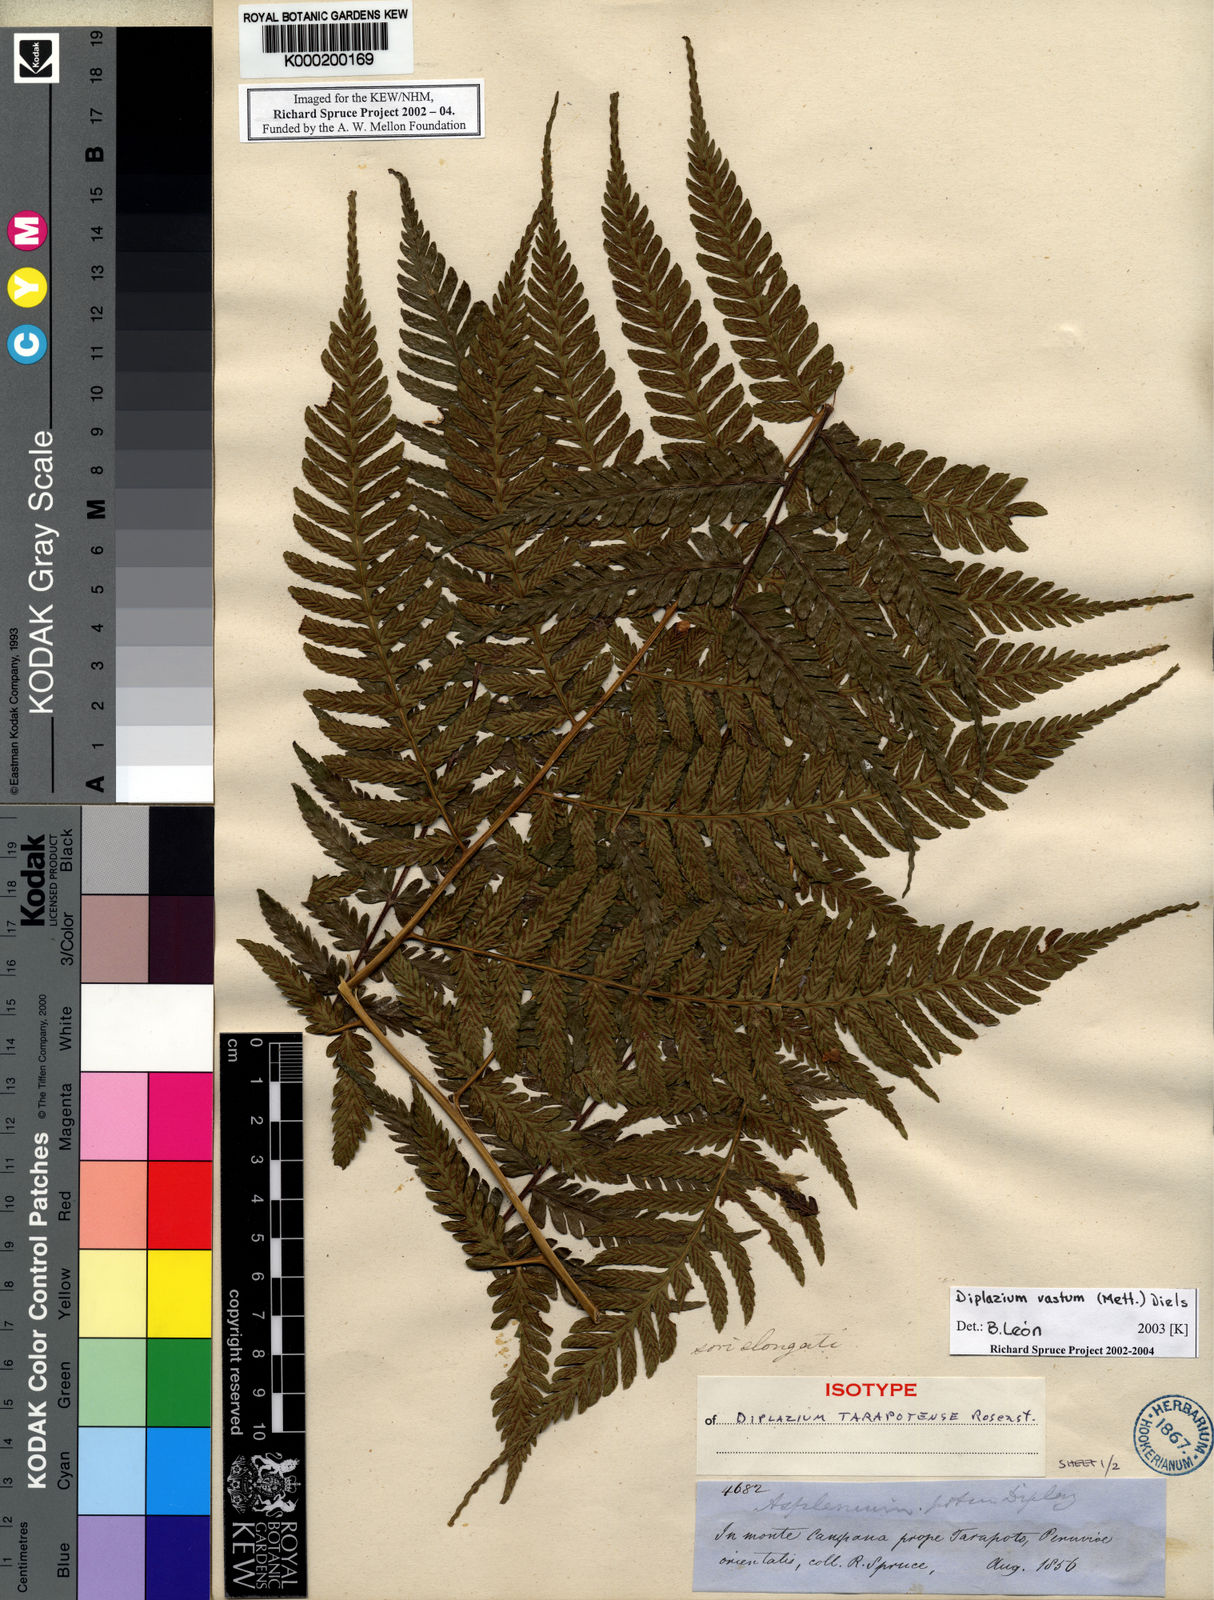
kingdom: Plantae
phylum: Tracheophyta
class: Polypodiopsida
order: Polypodiales
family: Athyriaceae
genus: Diplazium
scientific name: Diplazium vastum
